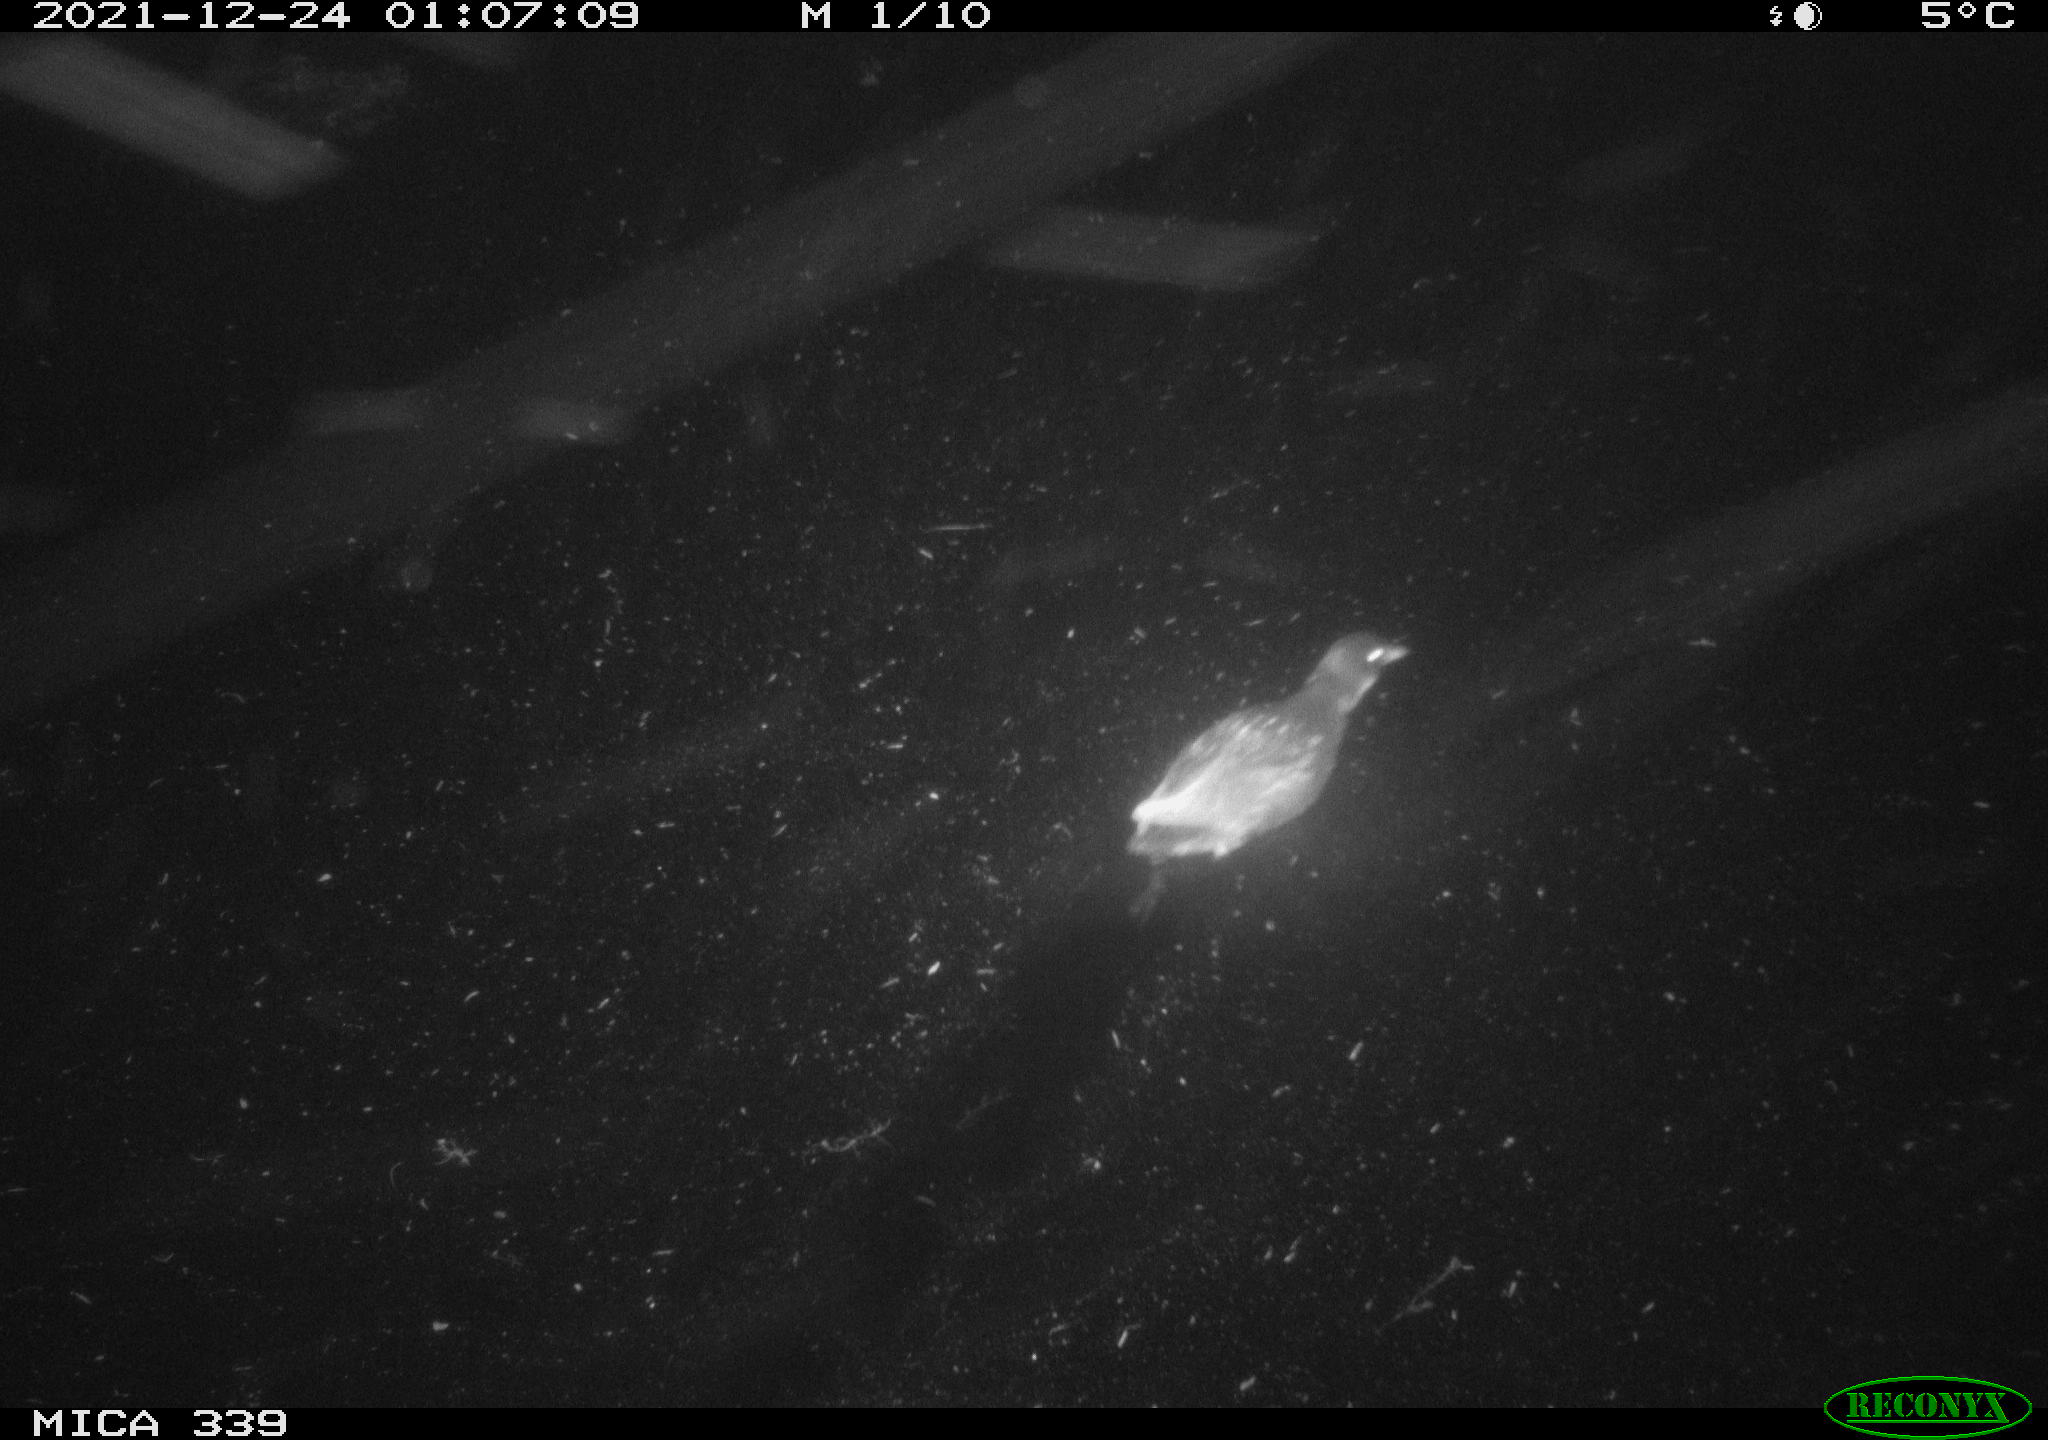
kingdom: Animalia
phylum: Chordata
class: Aves
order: Gruiformes
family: Rallidae
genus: Gallinula
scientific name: Gallinula chloropus
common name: Common moorhen
